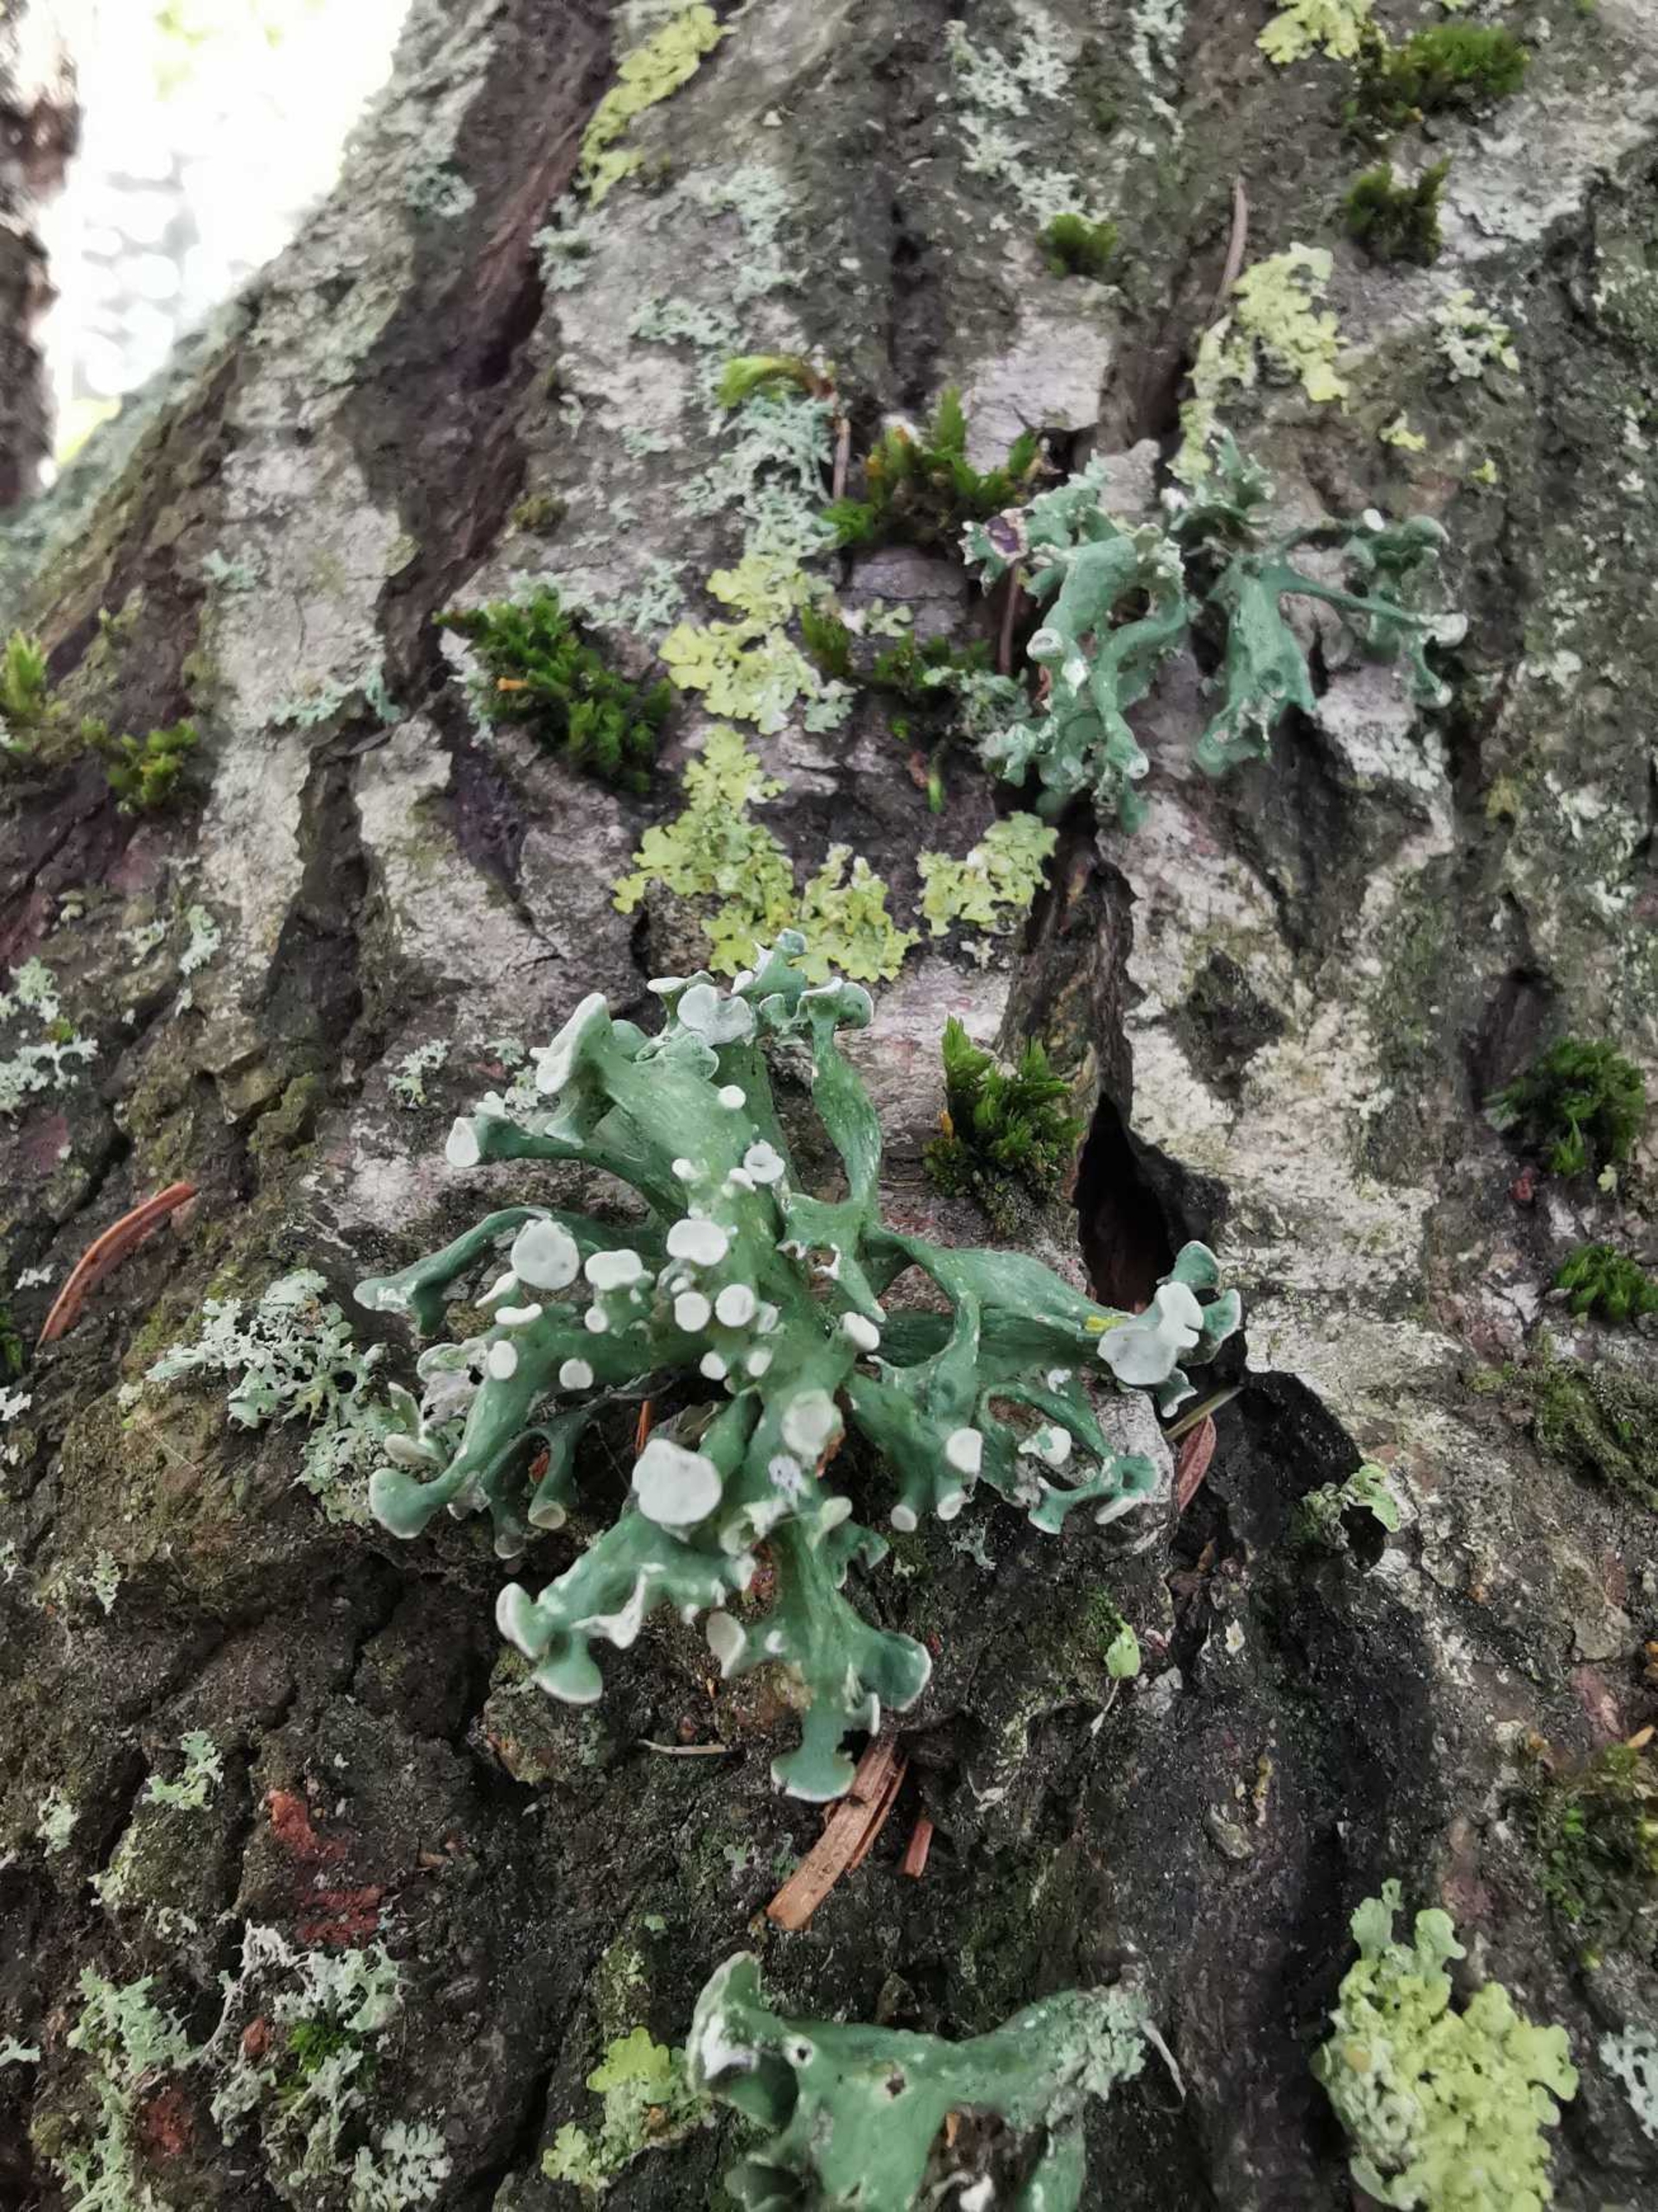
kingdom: Fungi
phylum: Ascomycota
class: Lecanoromycetes
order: Lecanorales
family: Ramalinaceae
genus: Ramalina
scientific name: Ramalina fastigiata
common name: Tue-grenlav
